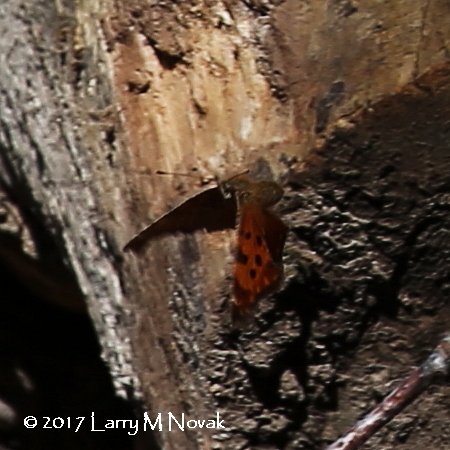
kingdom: Animalia
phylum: Arthropoda
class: Insecta
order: Lepidoptera
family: Nymphalidae
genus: Polygonia
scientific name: Polygonia comma
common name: Eastern Comma
